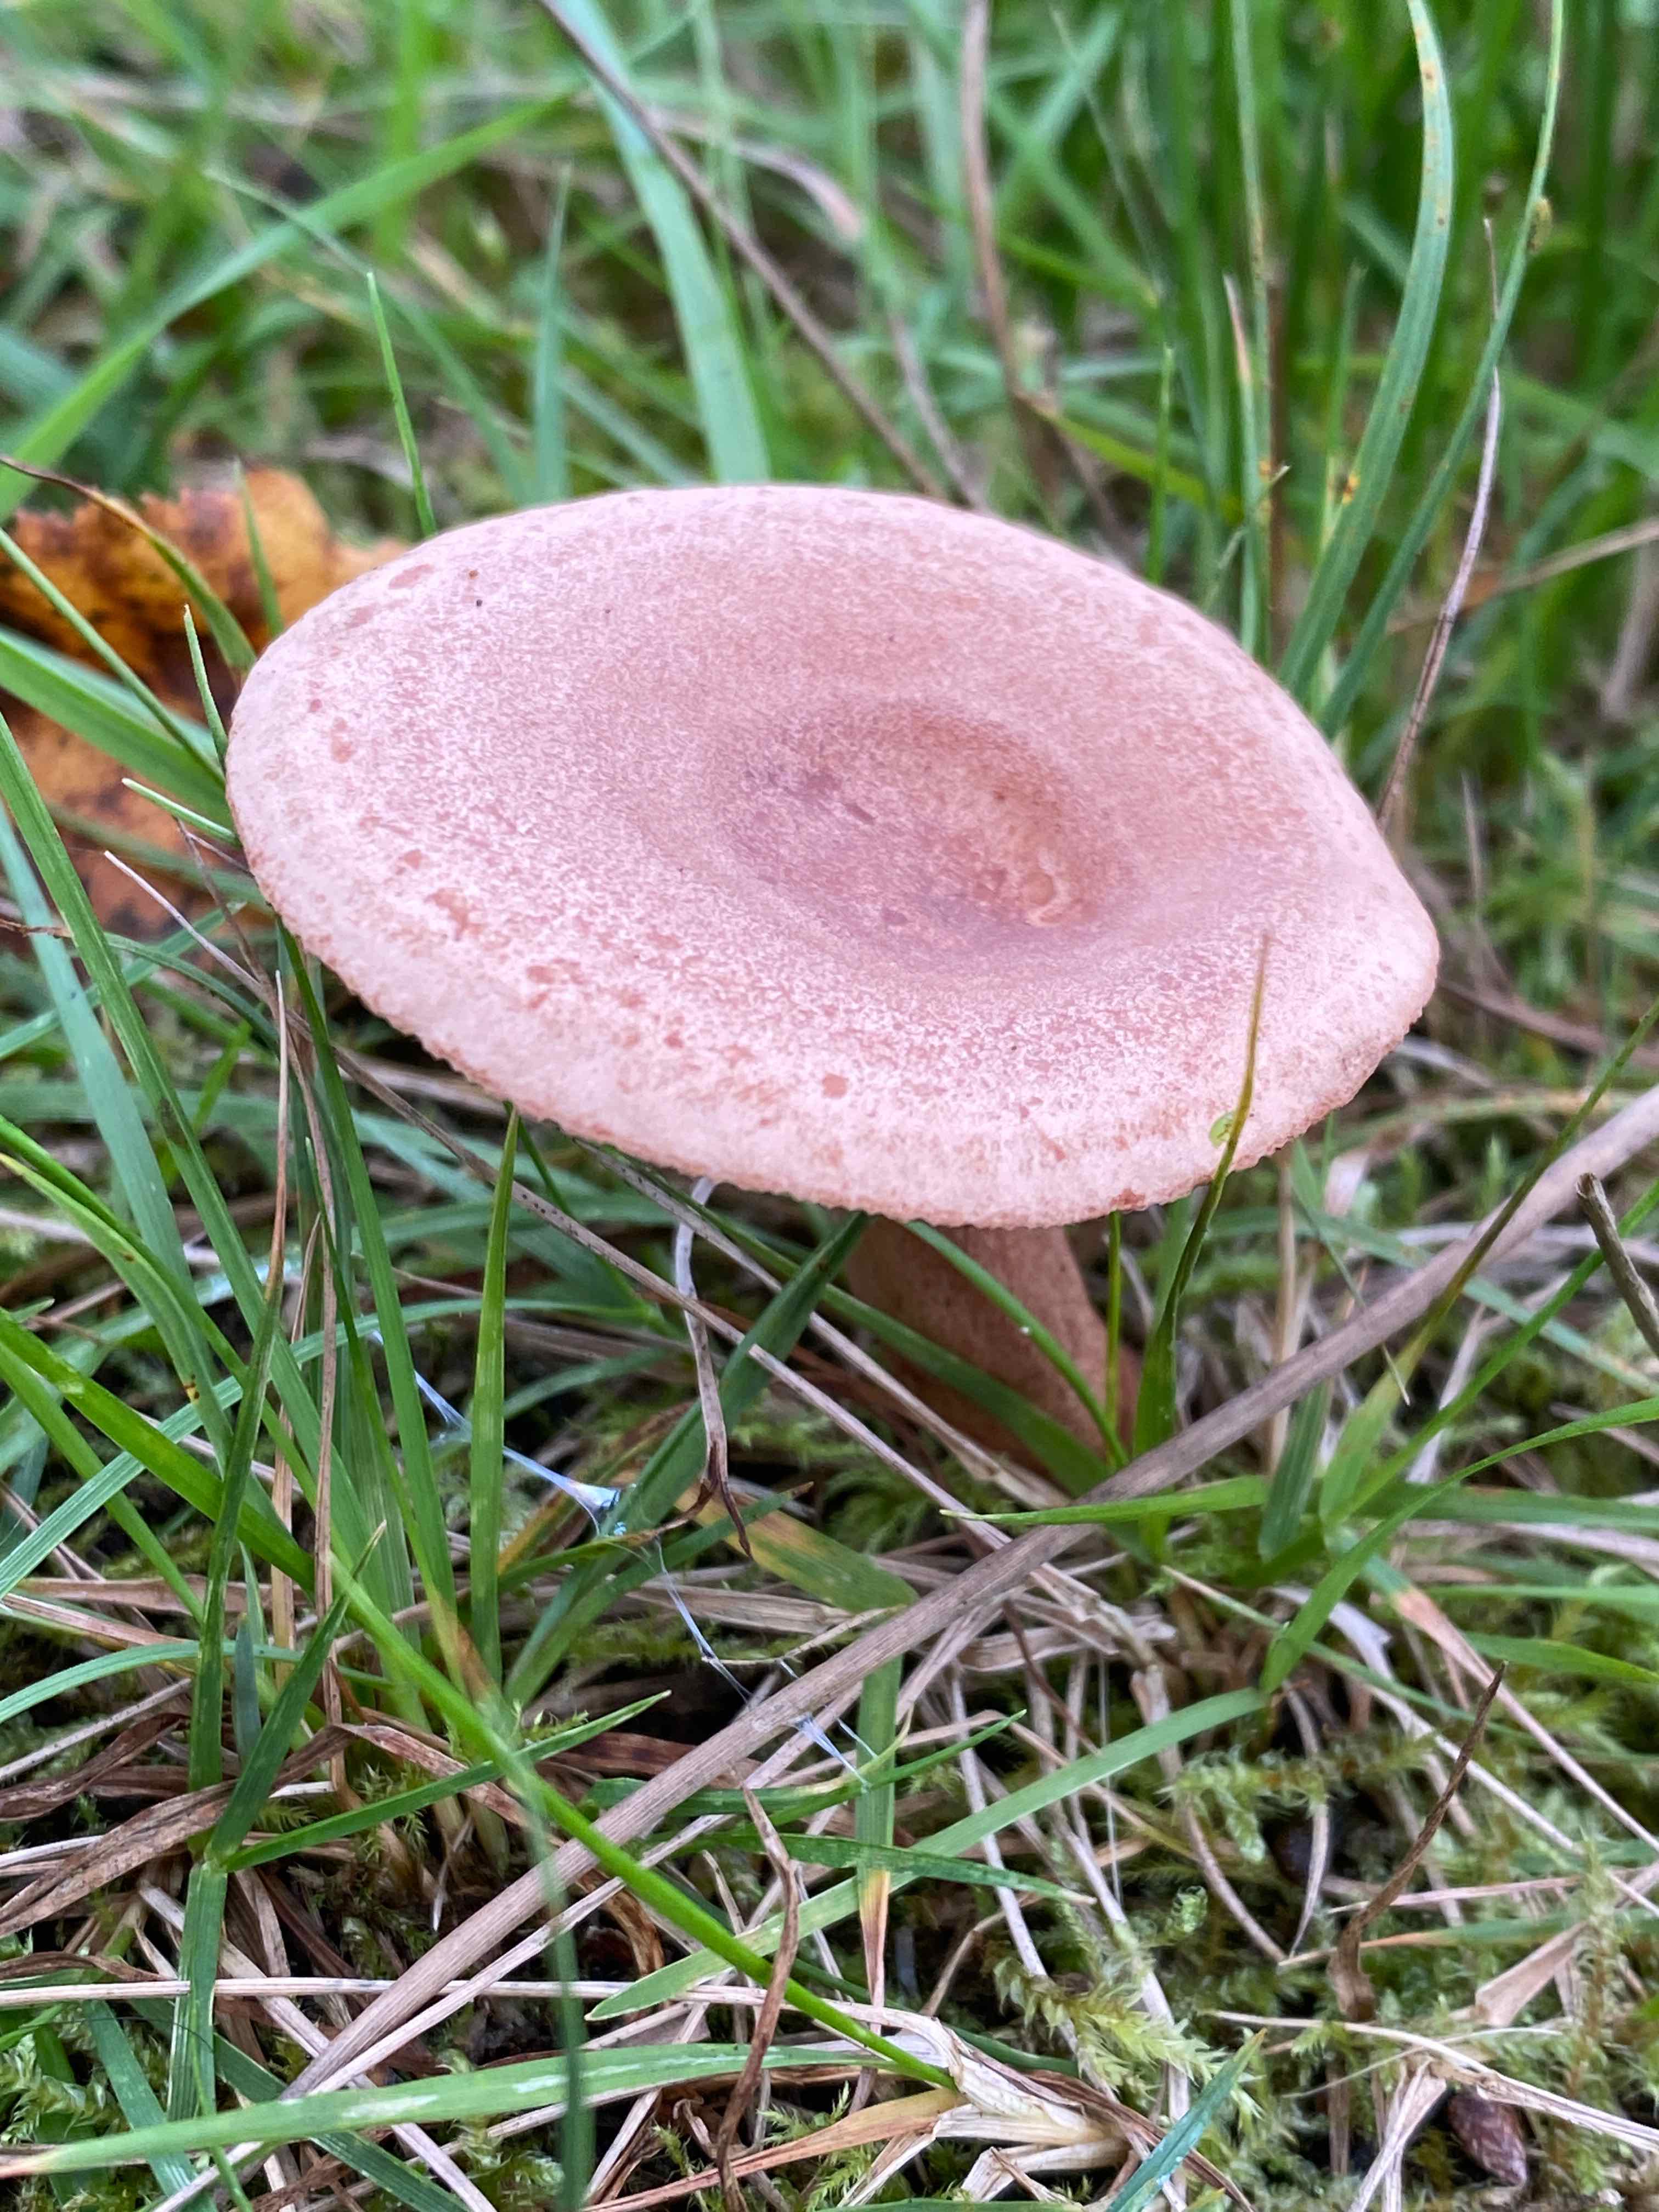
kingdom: Fungi
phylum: Basidiomycota
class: Agaricomycetes
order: Russulales
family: Russulaceae
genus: Lactarius
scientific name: Lactarius quietus
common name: ege-mælkehat
